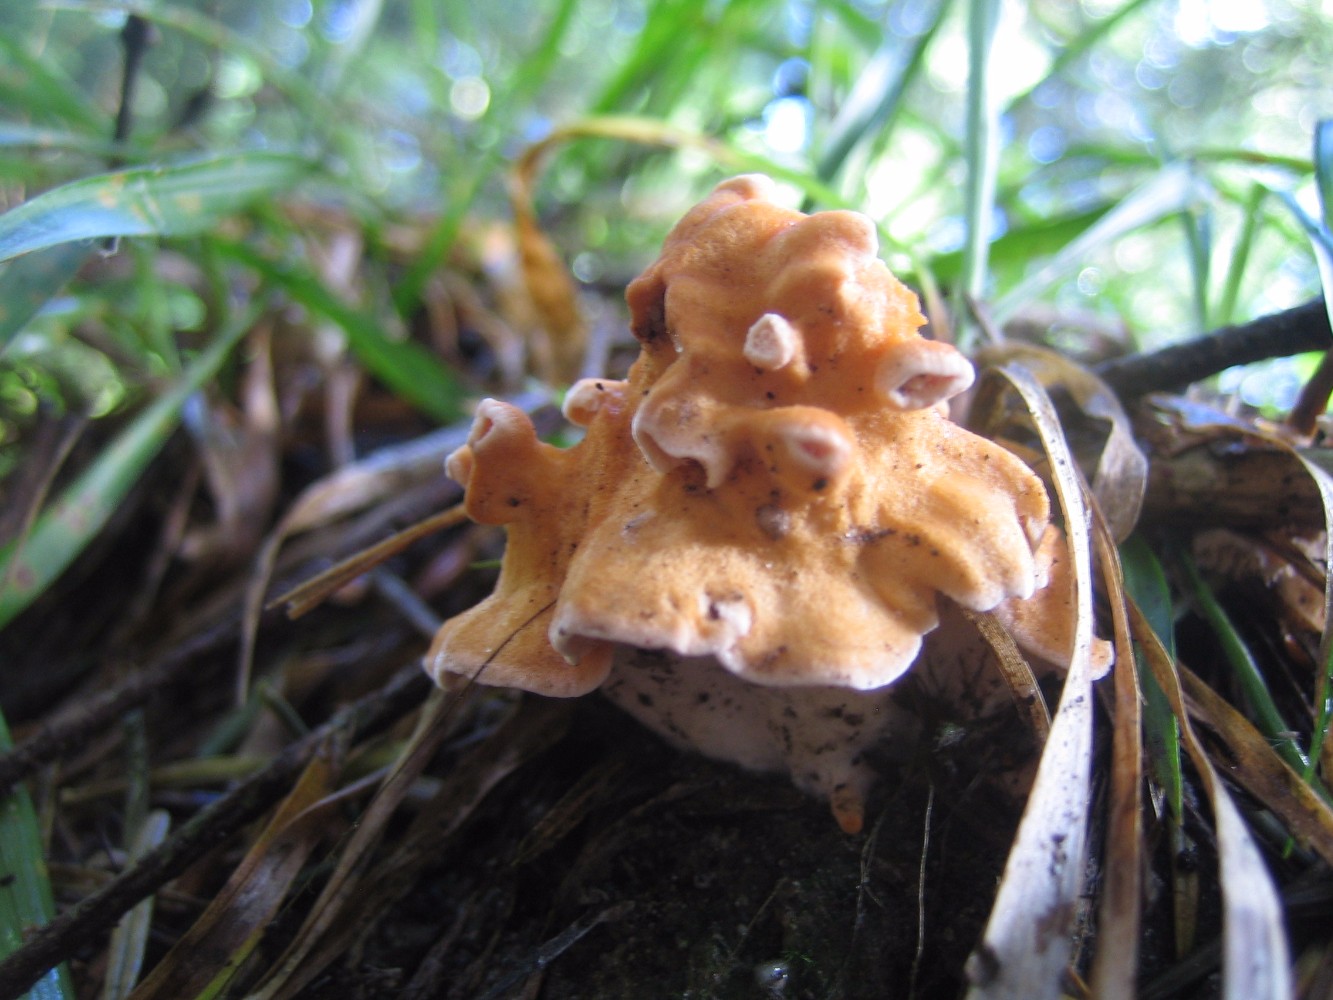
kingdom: Fungi
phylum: Basidiomycota
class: Agaricomycetes
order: Cantharellales
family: Hydnaceae
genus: Hydnum
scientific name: Hydnum
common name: pigsvamp
